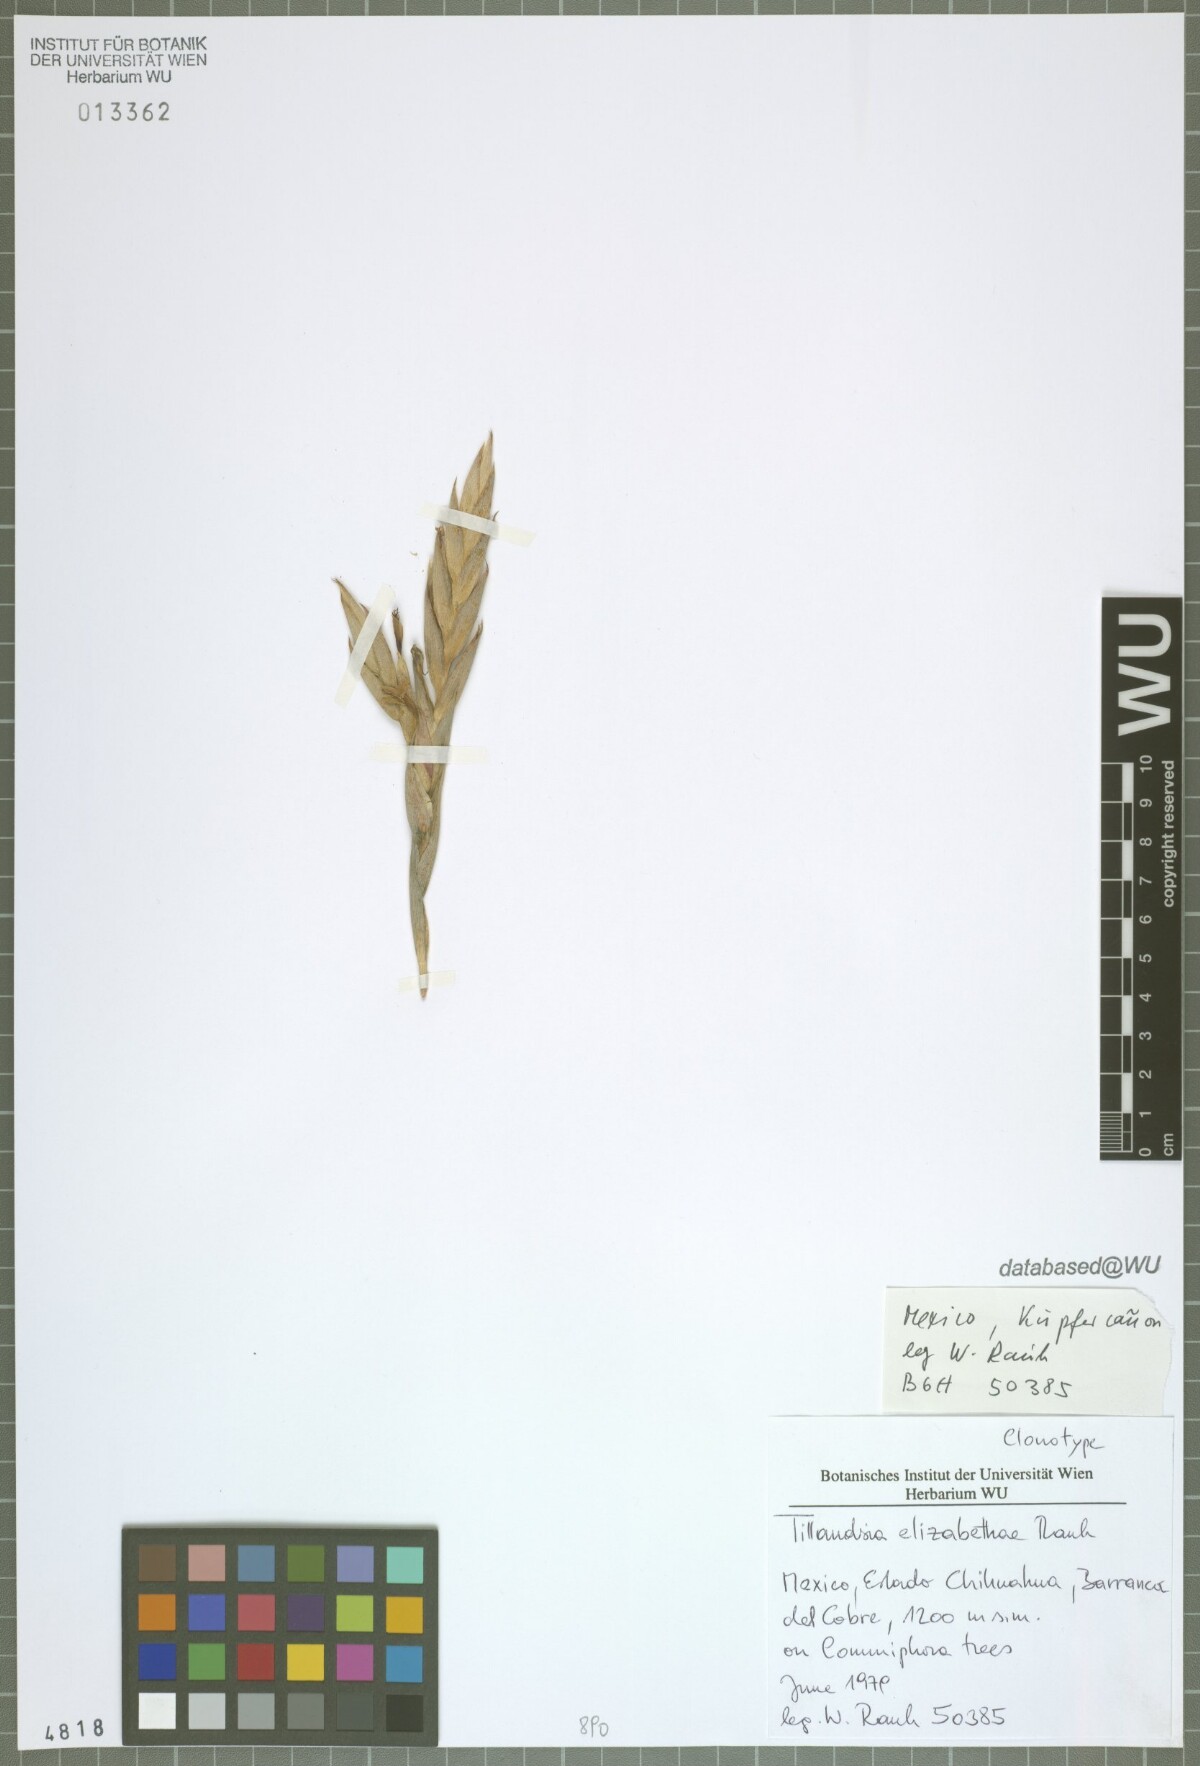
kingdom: Plantae
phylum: Tracheophyta
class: Liliopsida
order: Poales
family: Bromeliaceae
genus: Tillandsia
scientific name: Tillandsia elizabethae
